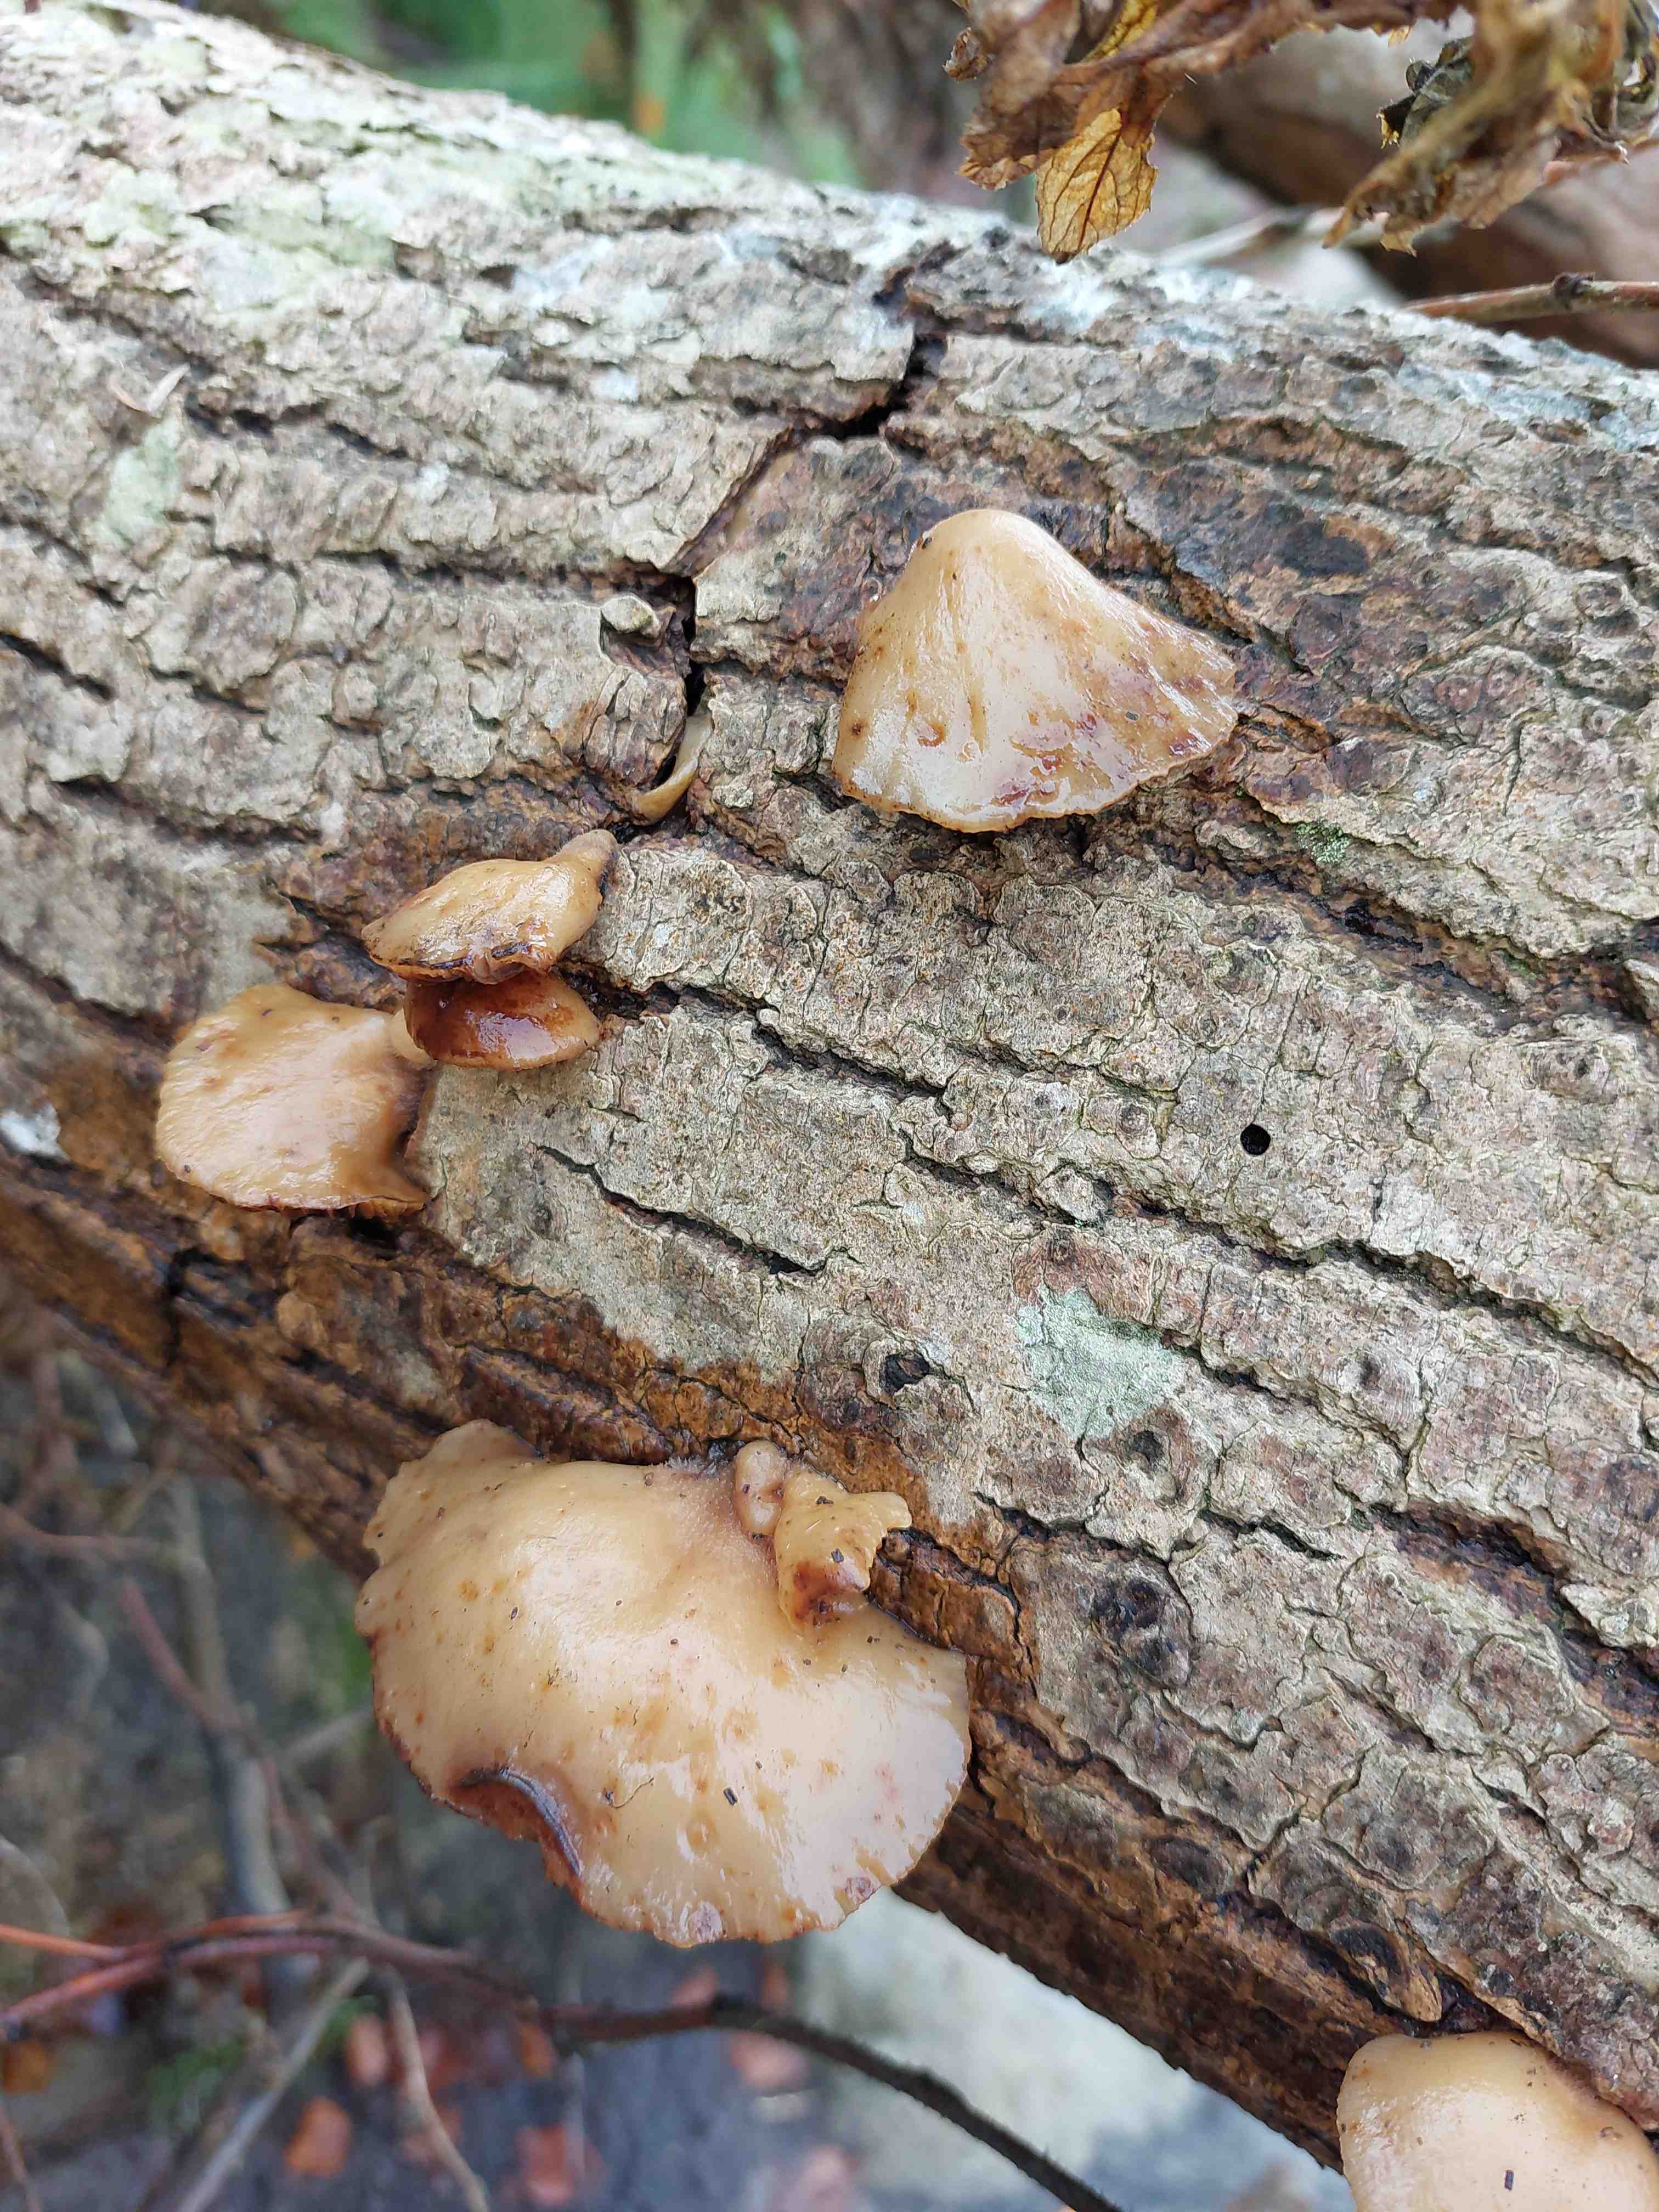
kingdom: Fungi
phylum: Basidiomycota
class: Agaricomycetes
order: Agaricales
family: Crepidotaceae
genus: Crepidotus
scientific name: Crepidotus mollis
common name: blød muslingesvamp
